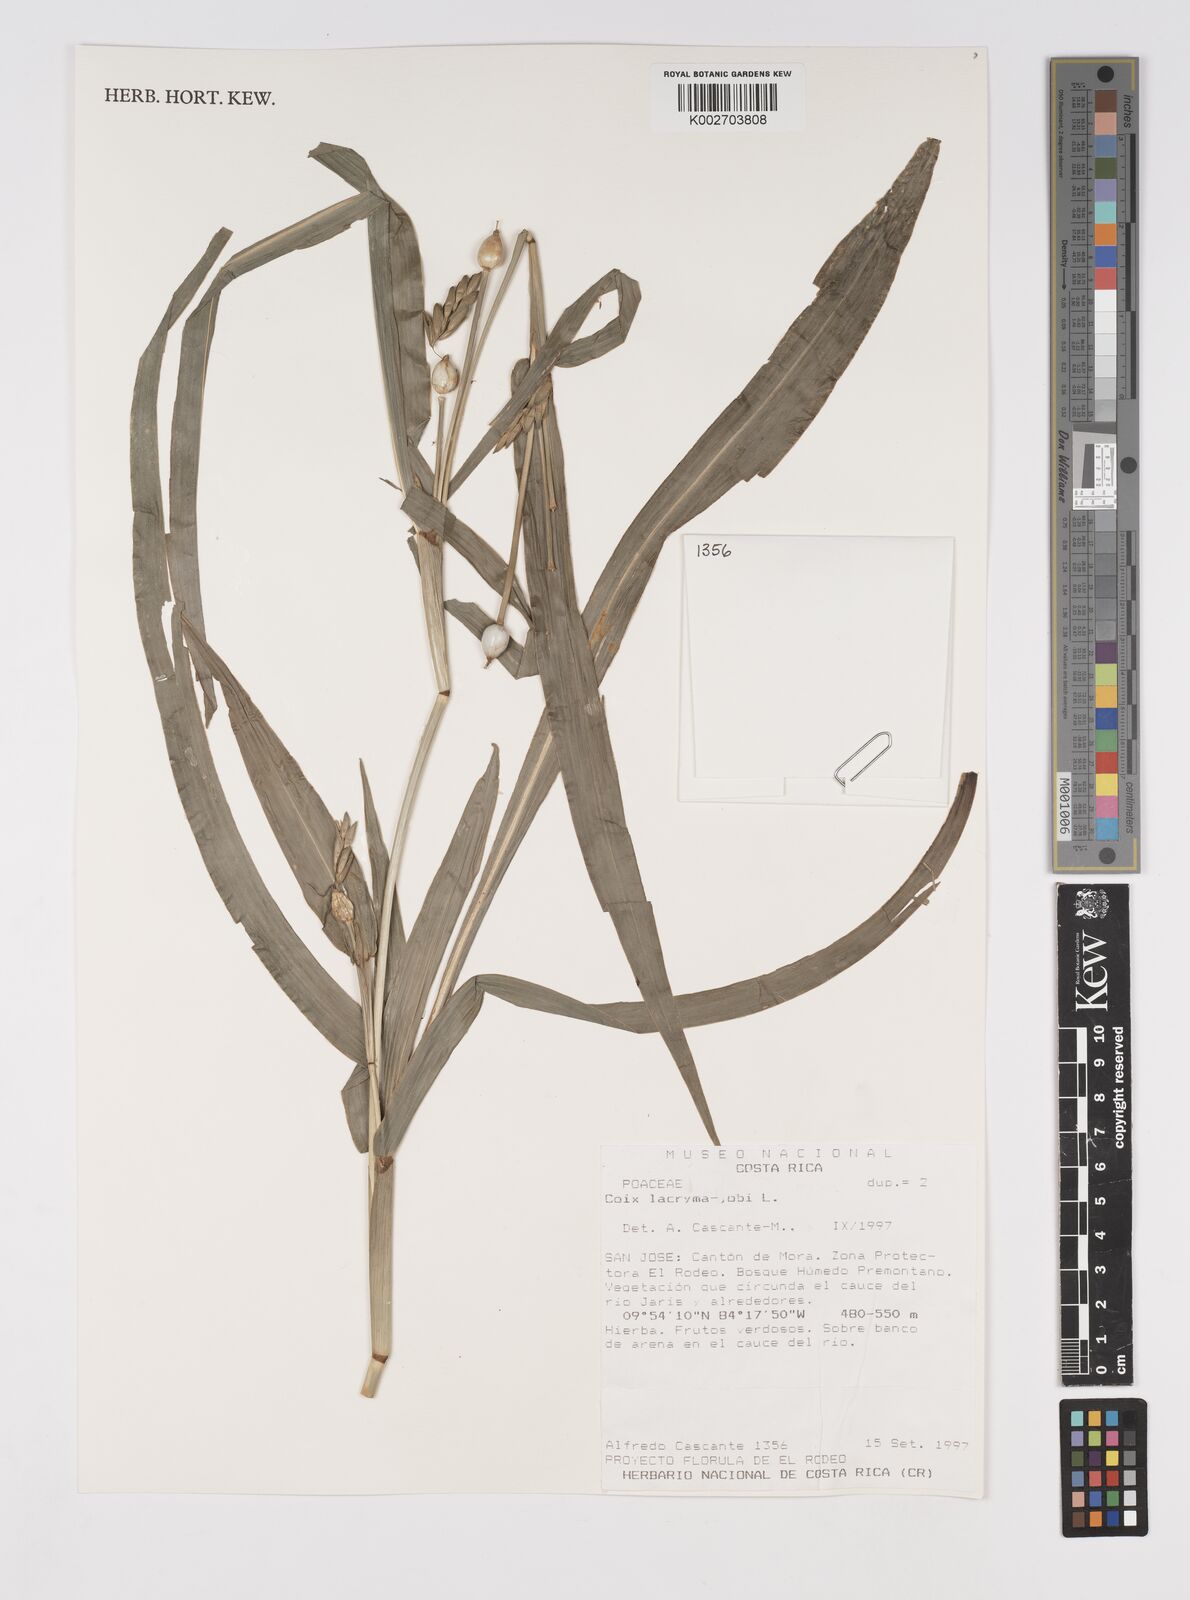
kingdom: Plantae
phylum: Tracheophyta
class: Liliopsida
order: Poales
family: Poaceae
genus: Coix
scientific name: Coix lacryma-jobi
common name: Job's tears
